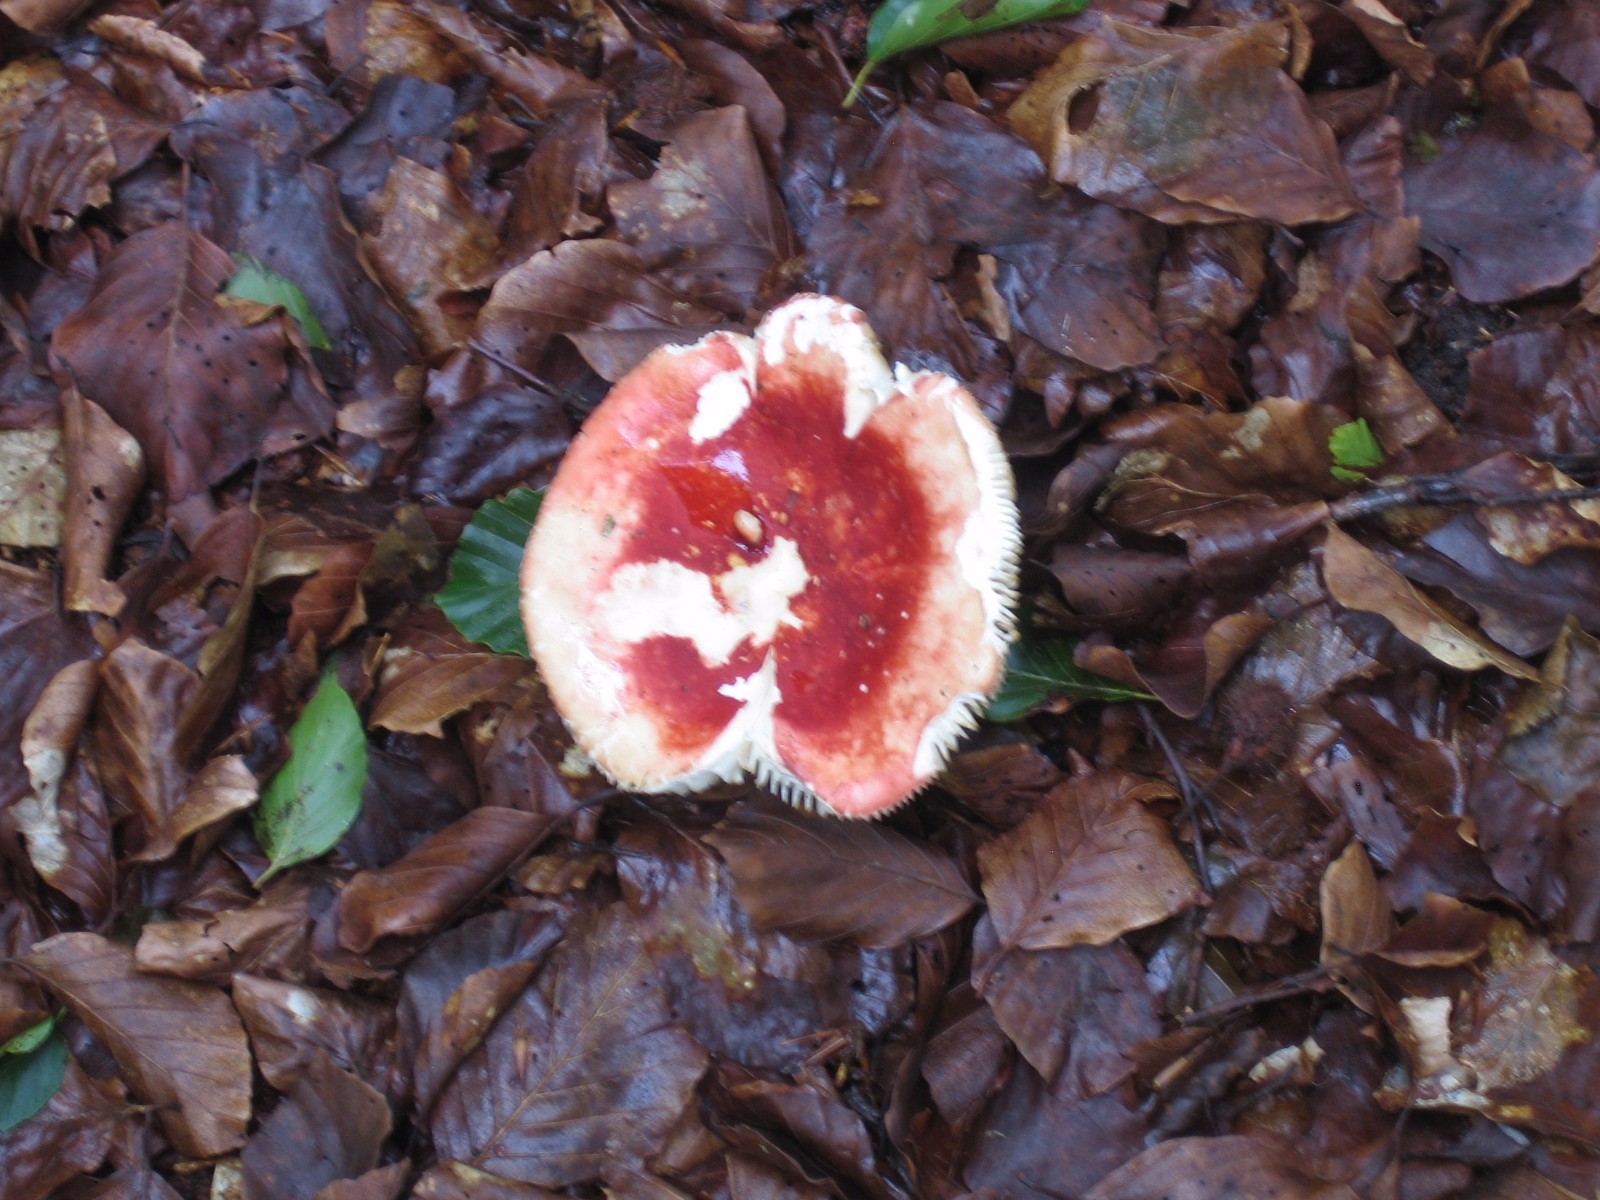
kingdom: Fungi
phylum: Basidiomycota
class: Agaricomycetes
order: Russulales
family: Russulaceae
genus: Russula
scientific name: Russula rosea
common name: fastkødet skørhat
